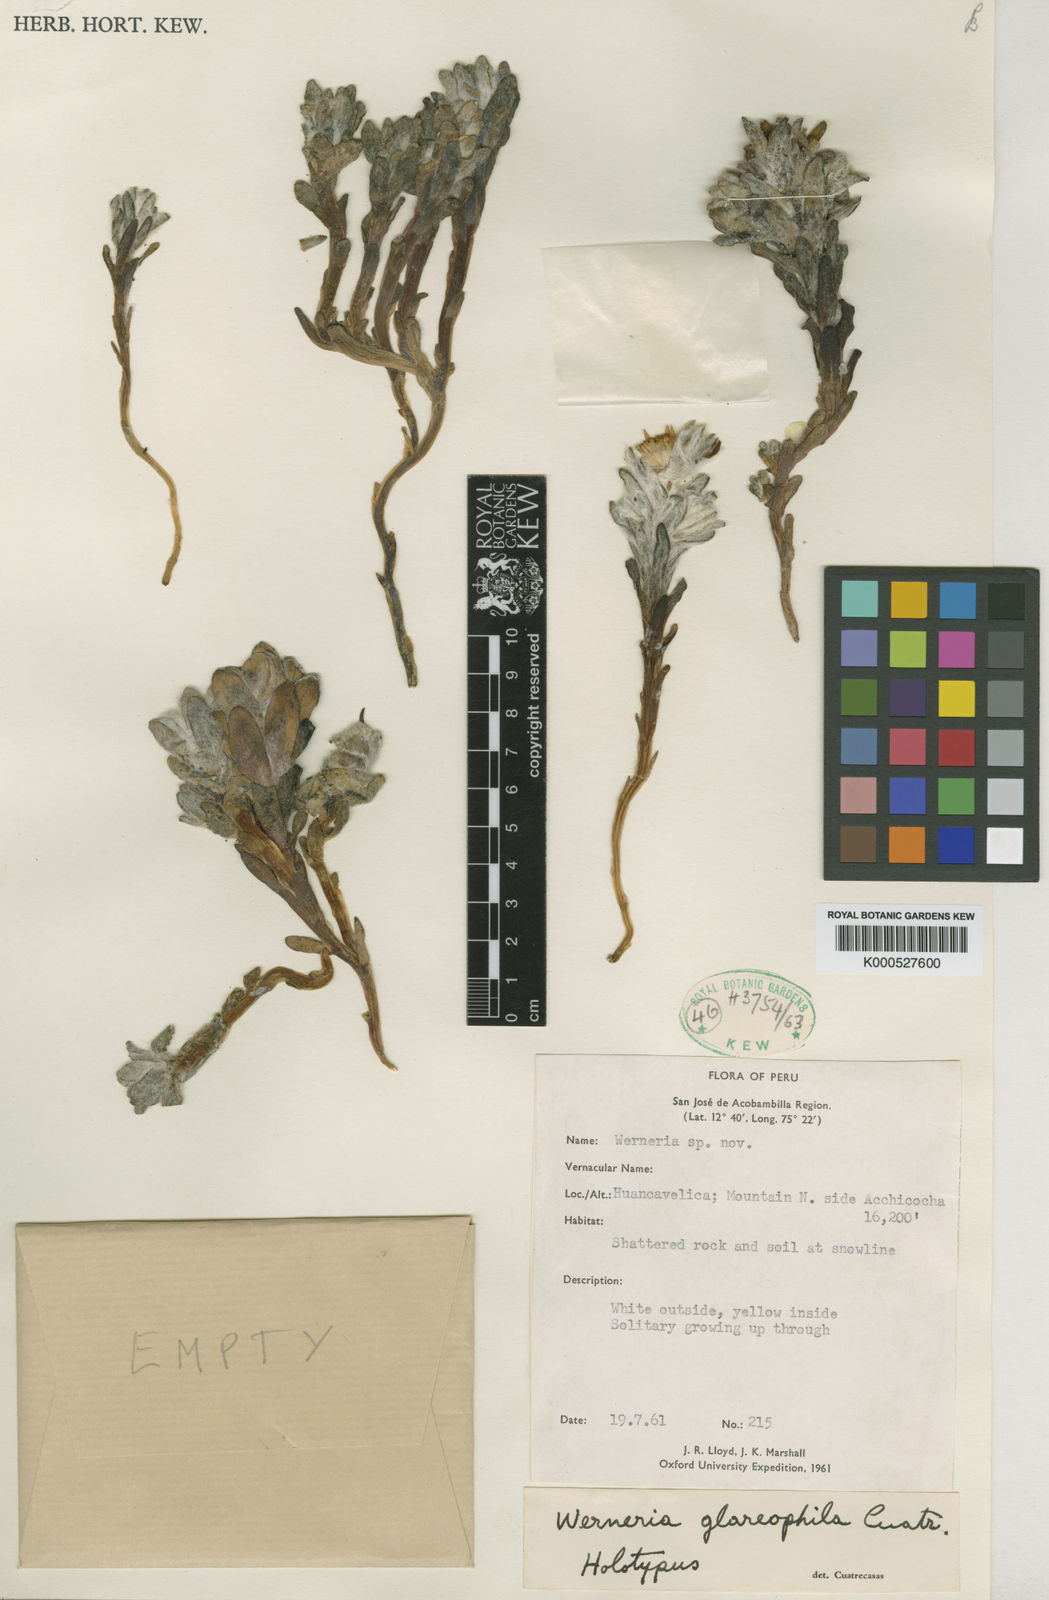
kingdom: Plantae
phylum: Tracheophyta
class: Magnoliopsida
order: Asterales
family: Asteraceae
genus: Anticona
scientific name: Anticona
